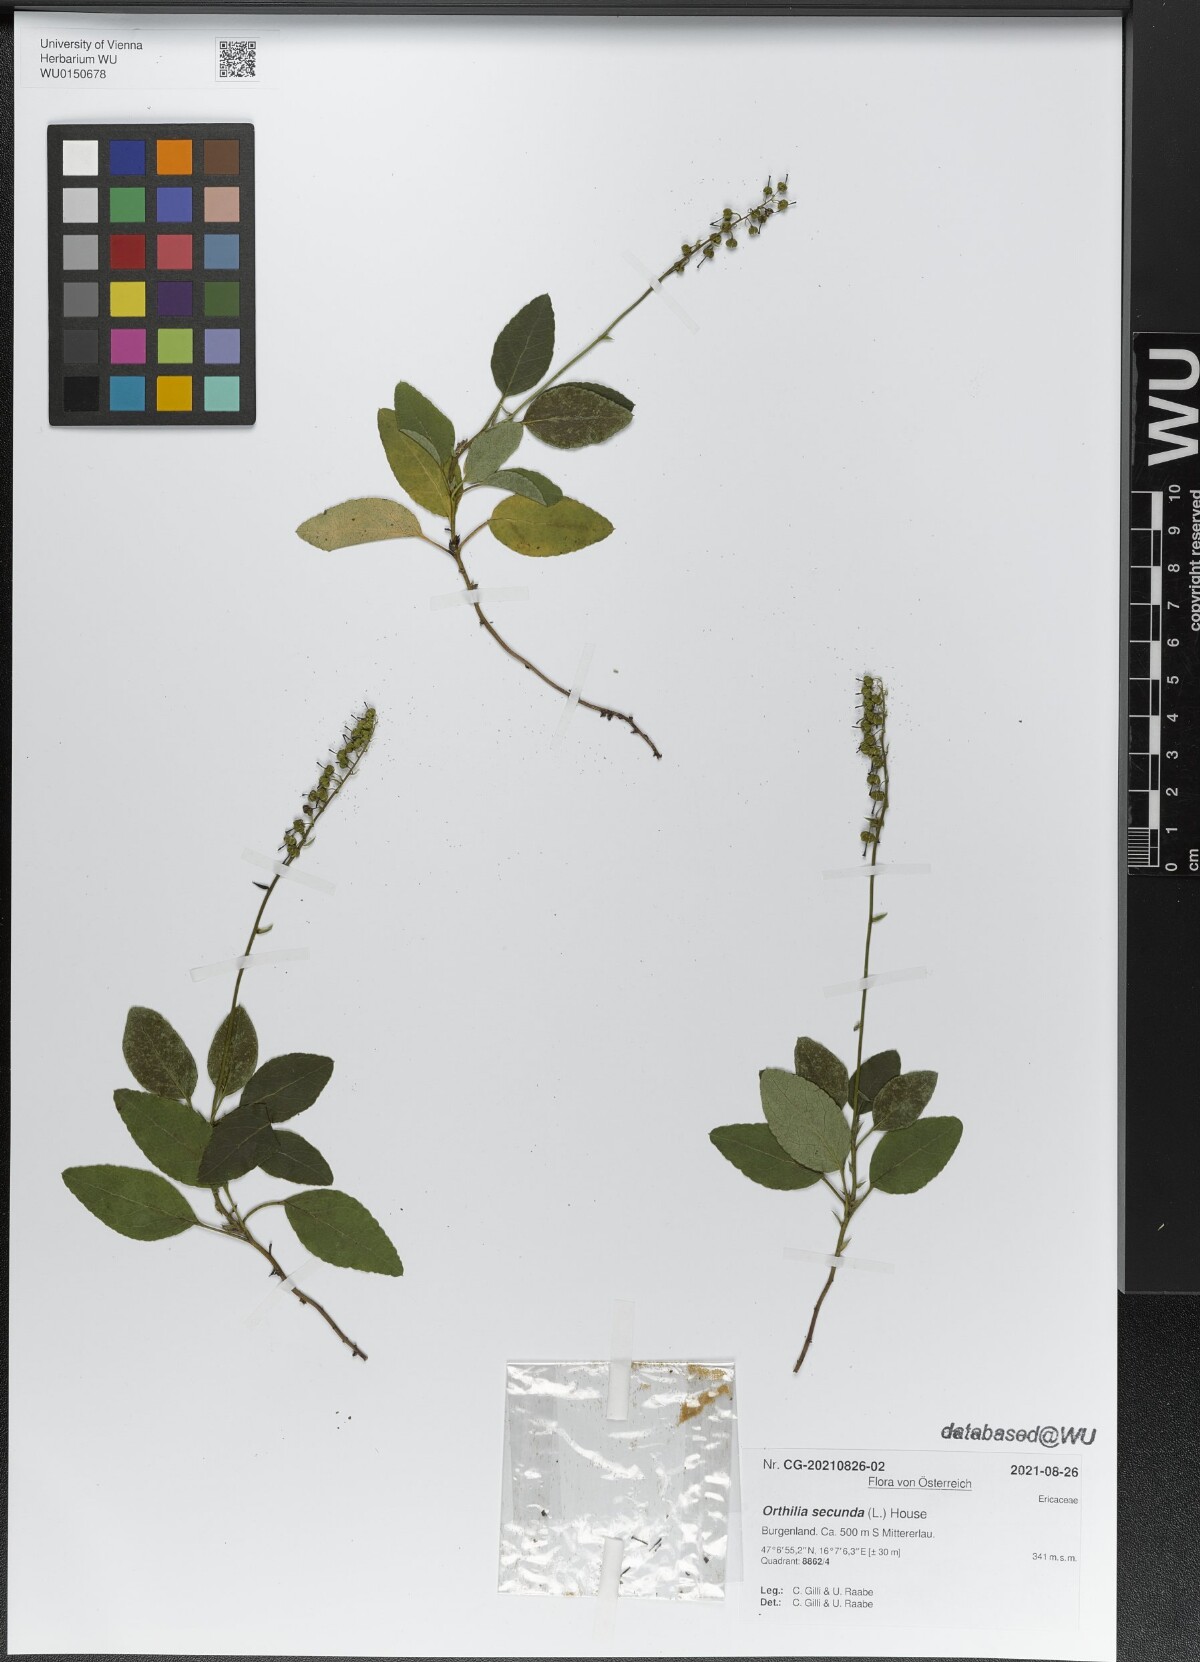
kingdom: Plantae
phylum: Tracheophyta
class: Magnoliopsida
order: Ericales
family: Ericaceae
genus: Orthilia
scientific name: Orthilia secunda
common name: One-sided orthilia
